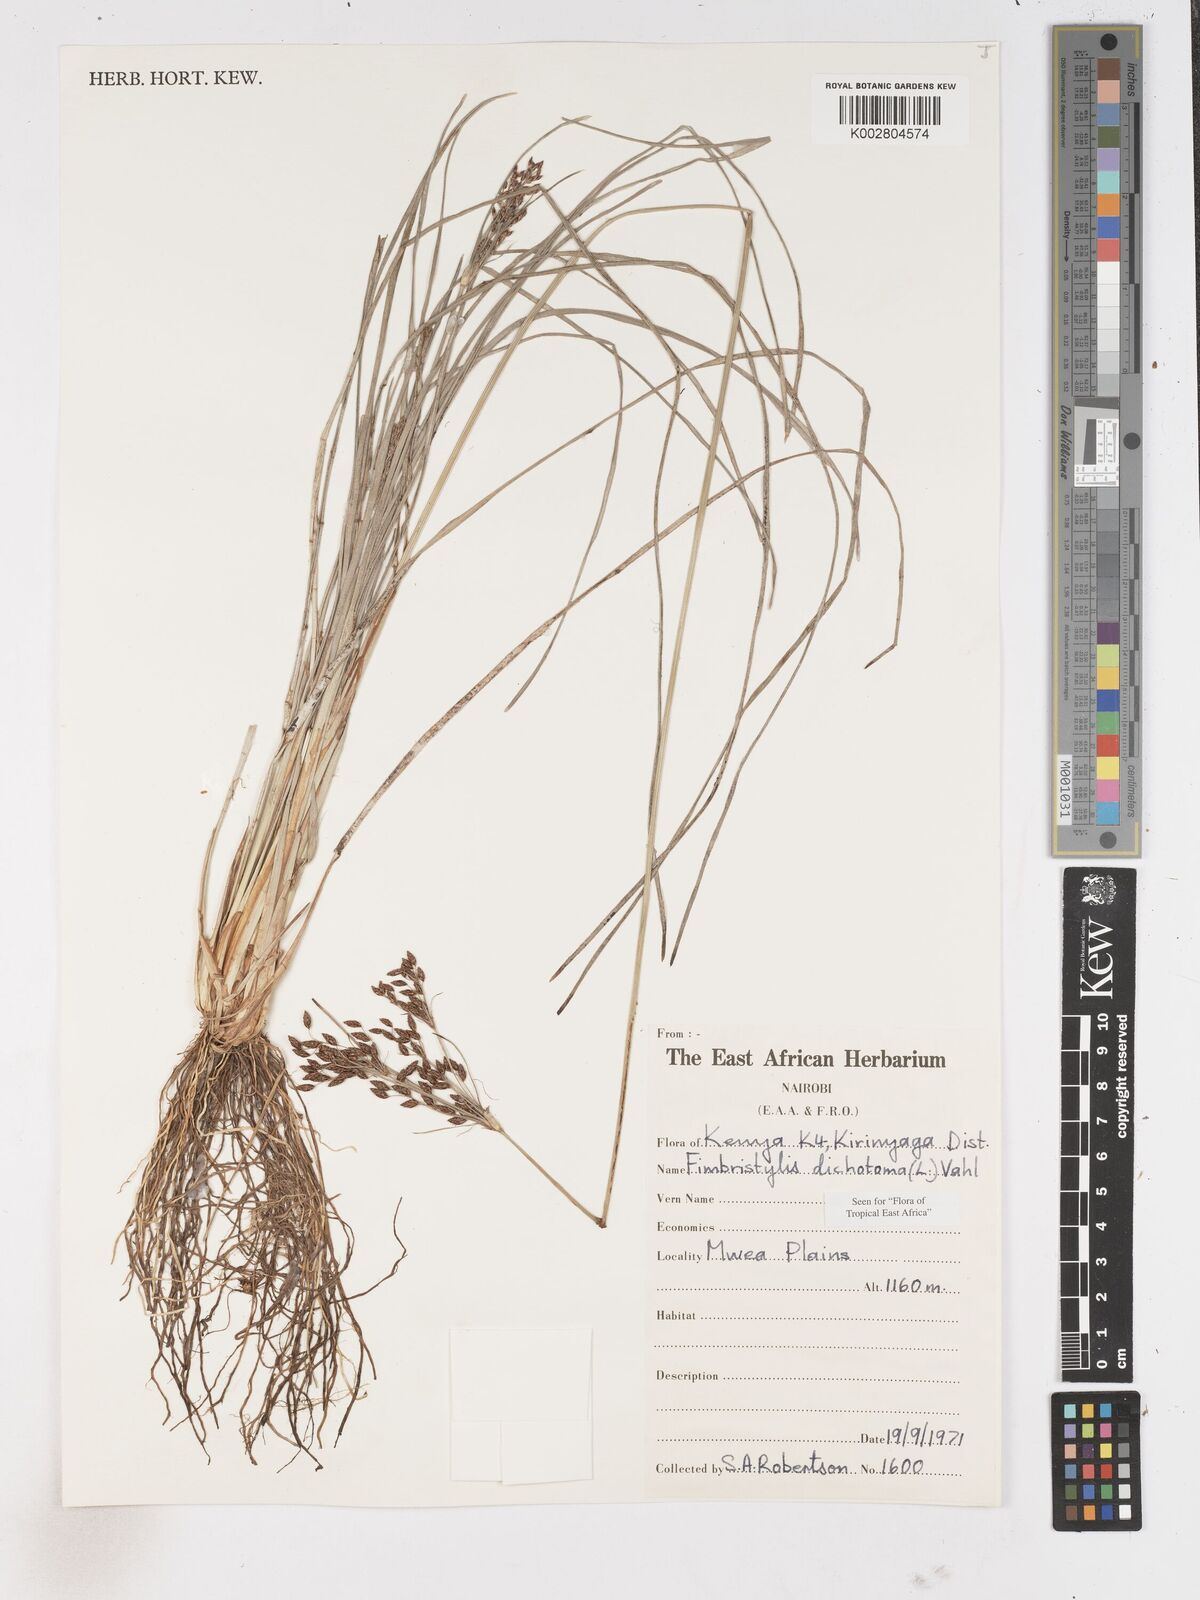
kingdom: Plantae
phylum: Tracheophyta
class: Liliopsida
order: Poales
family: Cyperaceae
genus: Fimbristylis
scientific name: Fimbristylis dichotoma
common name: Forked fimbry
